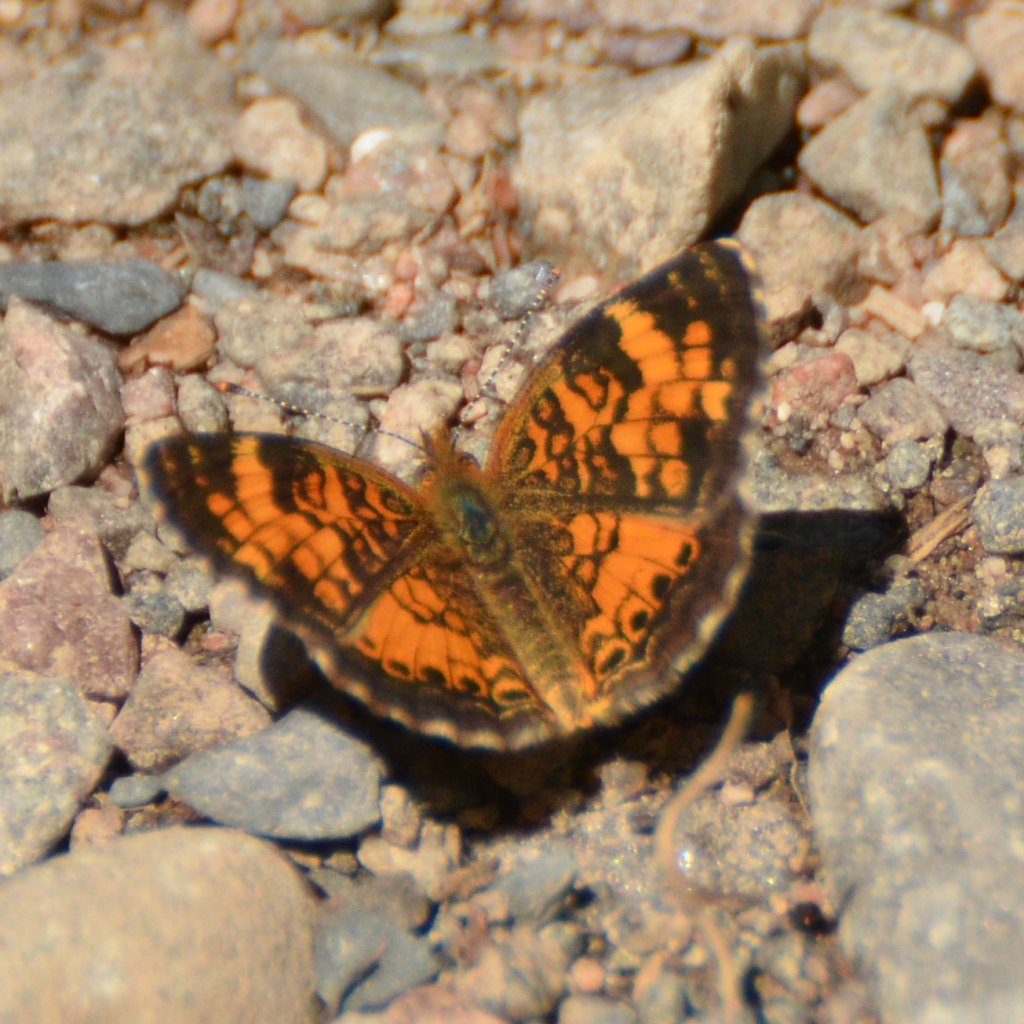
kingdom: Animalia
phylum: Arthropoda
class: Insecta
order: Lepidoptera
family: Nymphalidae
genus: Phyciodes
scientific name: Phyciodes tharos
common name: Northern Crescent
